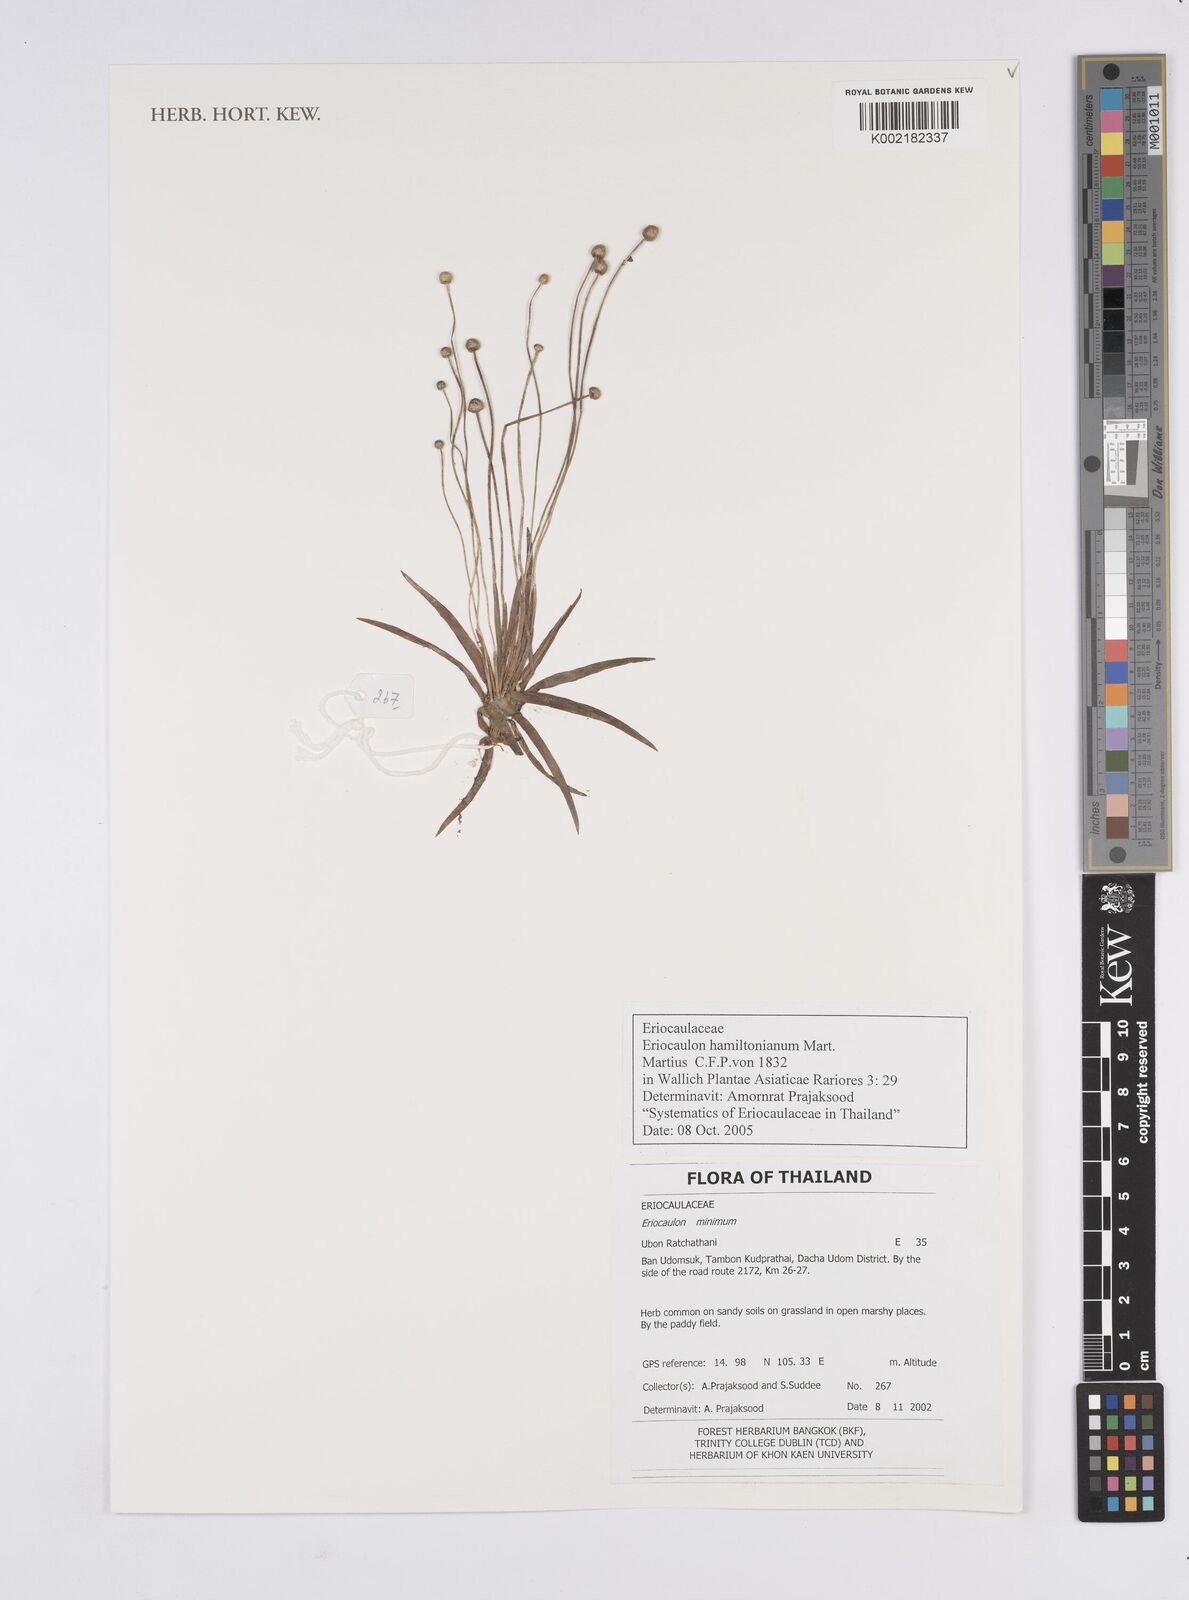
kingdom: Plantae
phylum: Tracheophyta
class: Liliopsida
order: Poales
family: Eriocaulaceae
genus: Eriocaulon
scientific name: Eriocaulon hamiltonianum
